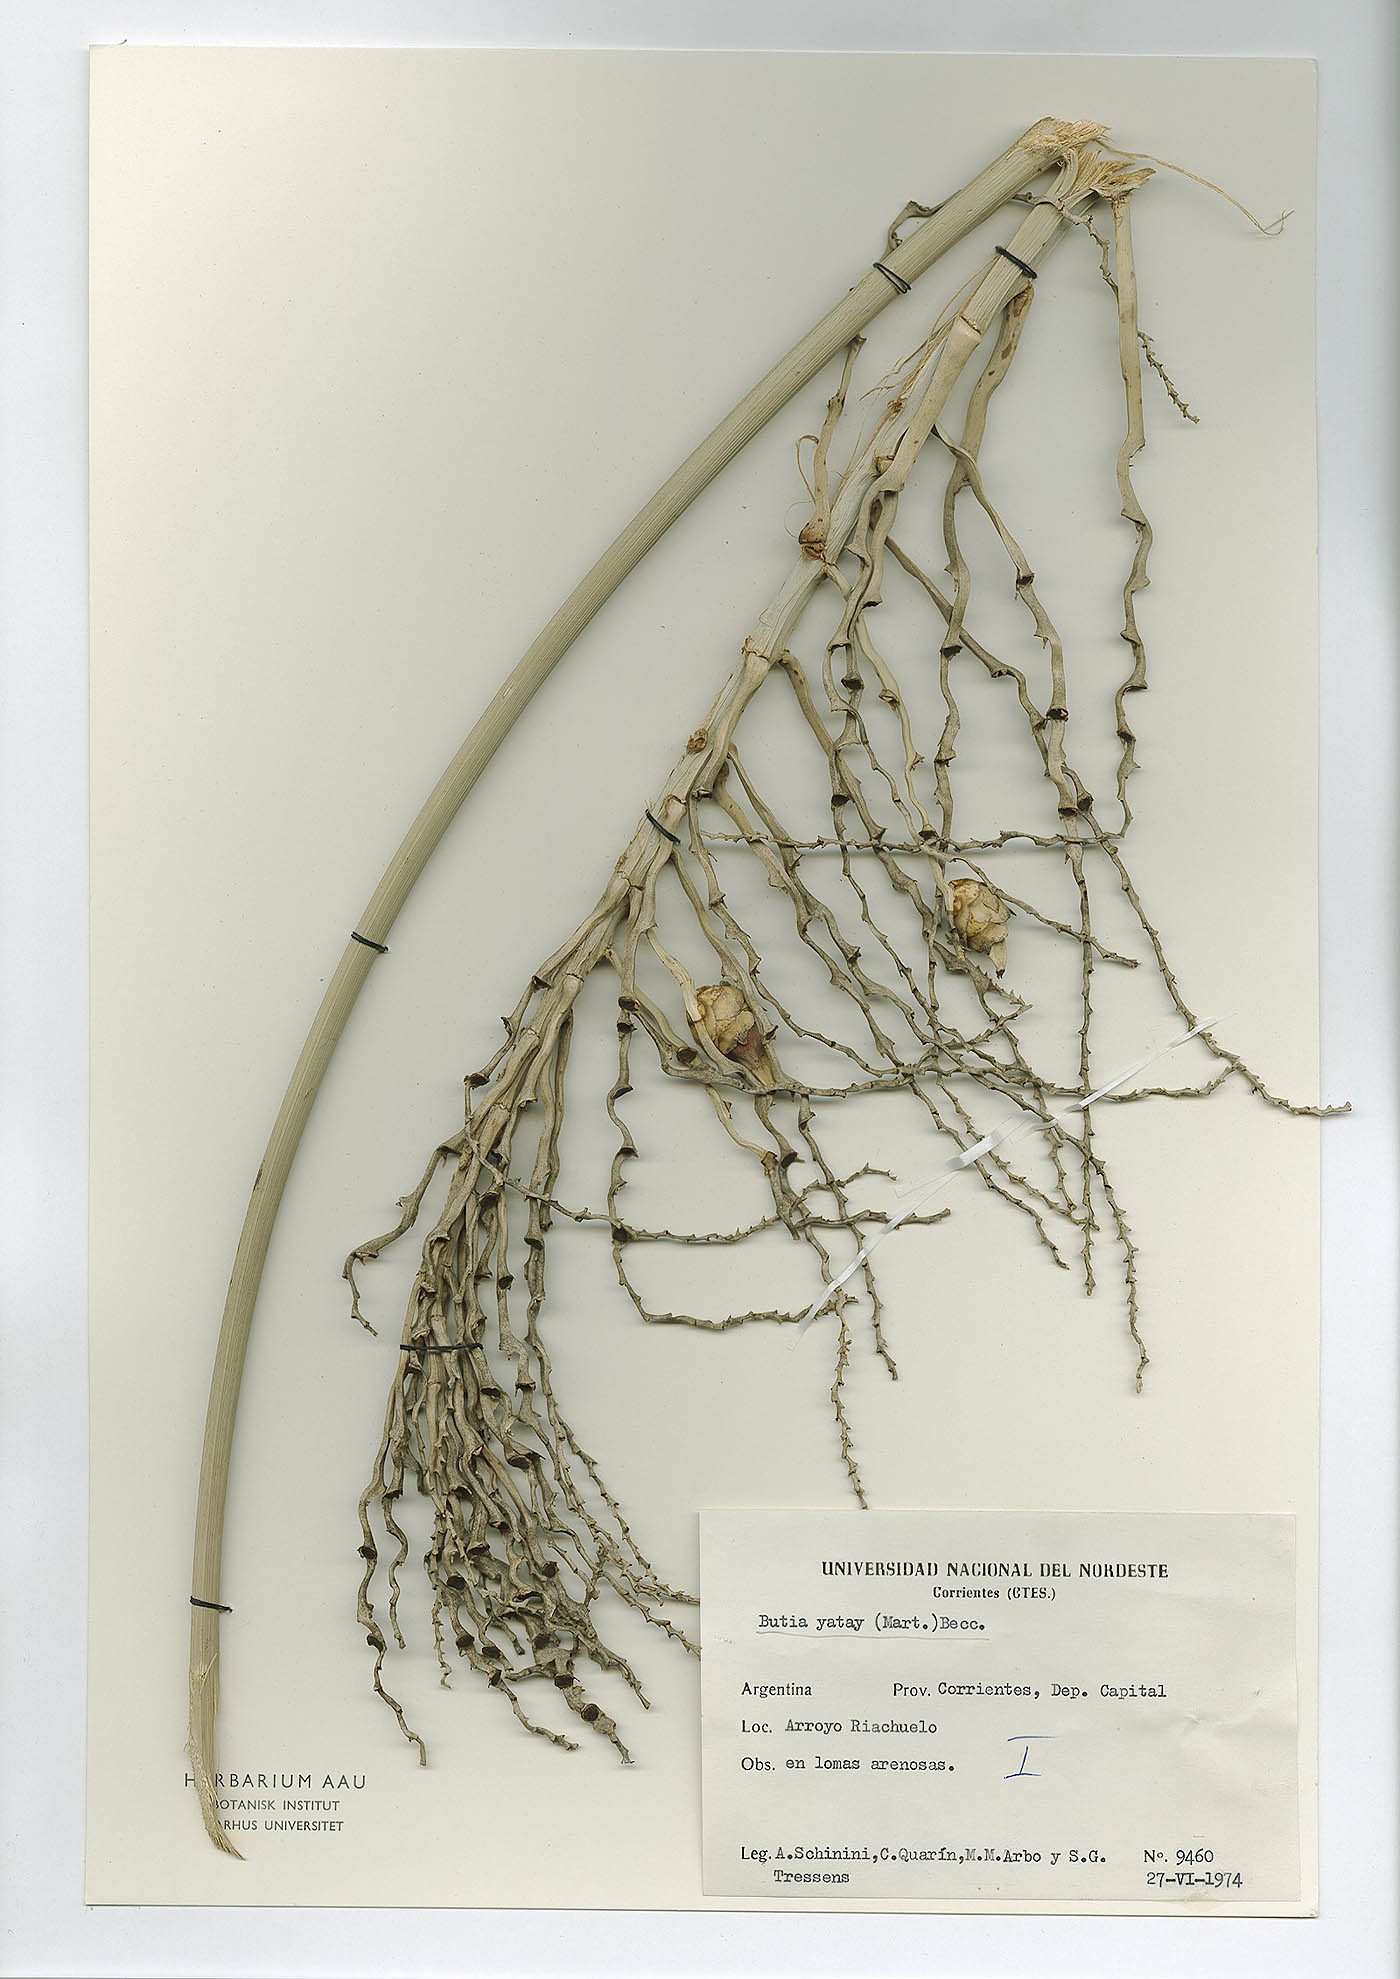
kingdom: Plantae
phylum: Tracheophyta
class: Liliopsida
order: Arecales
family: Arecaceae
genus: Butia
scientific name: Butia yatay
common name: Yatay palm
